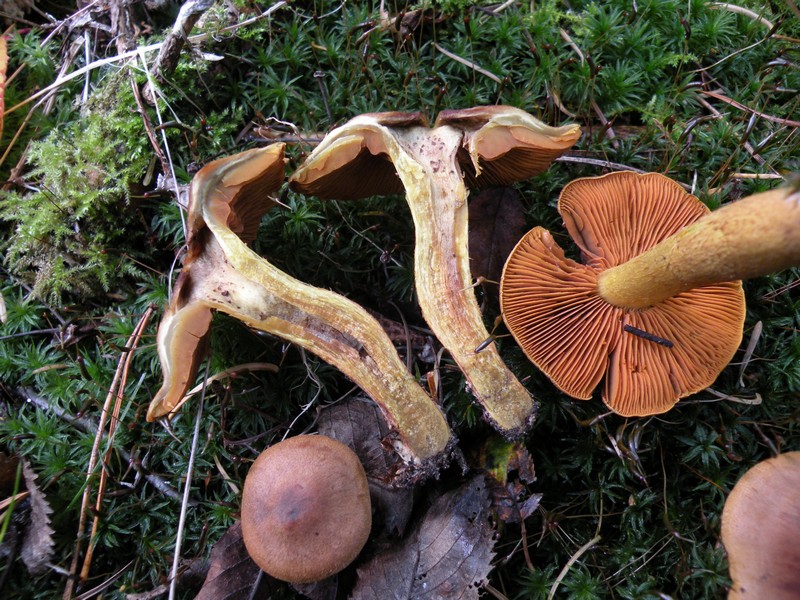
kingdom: Fungi
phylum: Basidiomycota
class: Agaricomycetes
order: Agaricales
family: Cortinariaceae
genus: Cortinarius
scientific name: Cortinarius malicorius
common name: grønkødet slørhat
